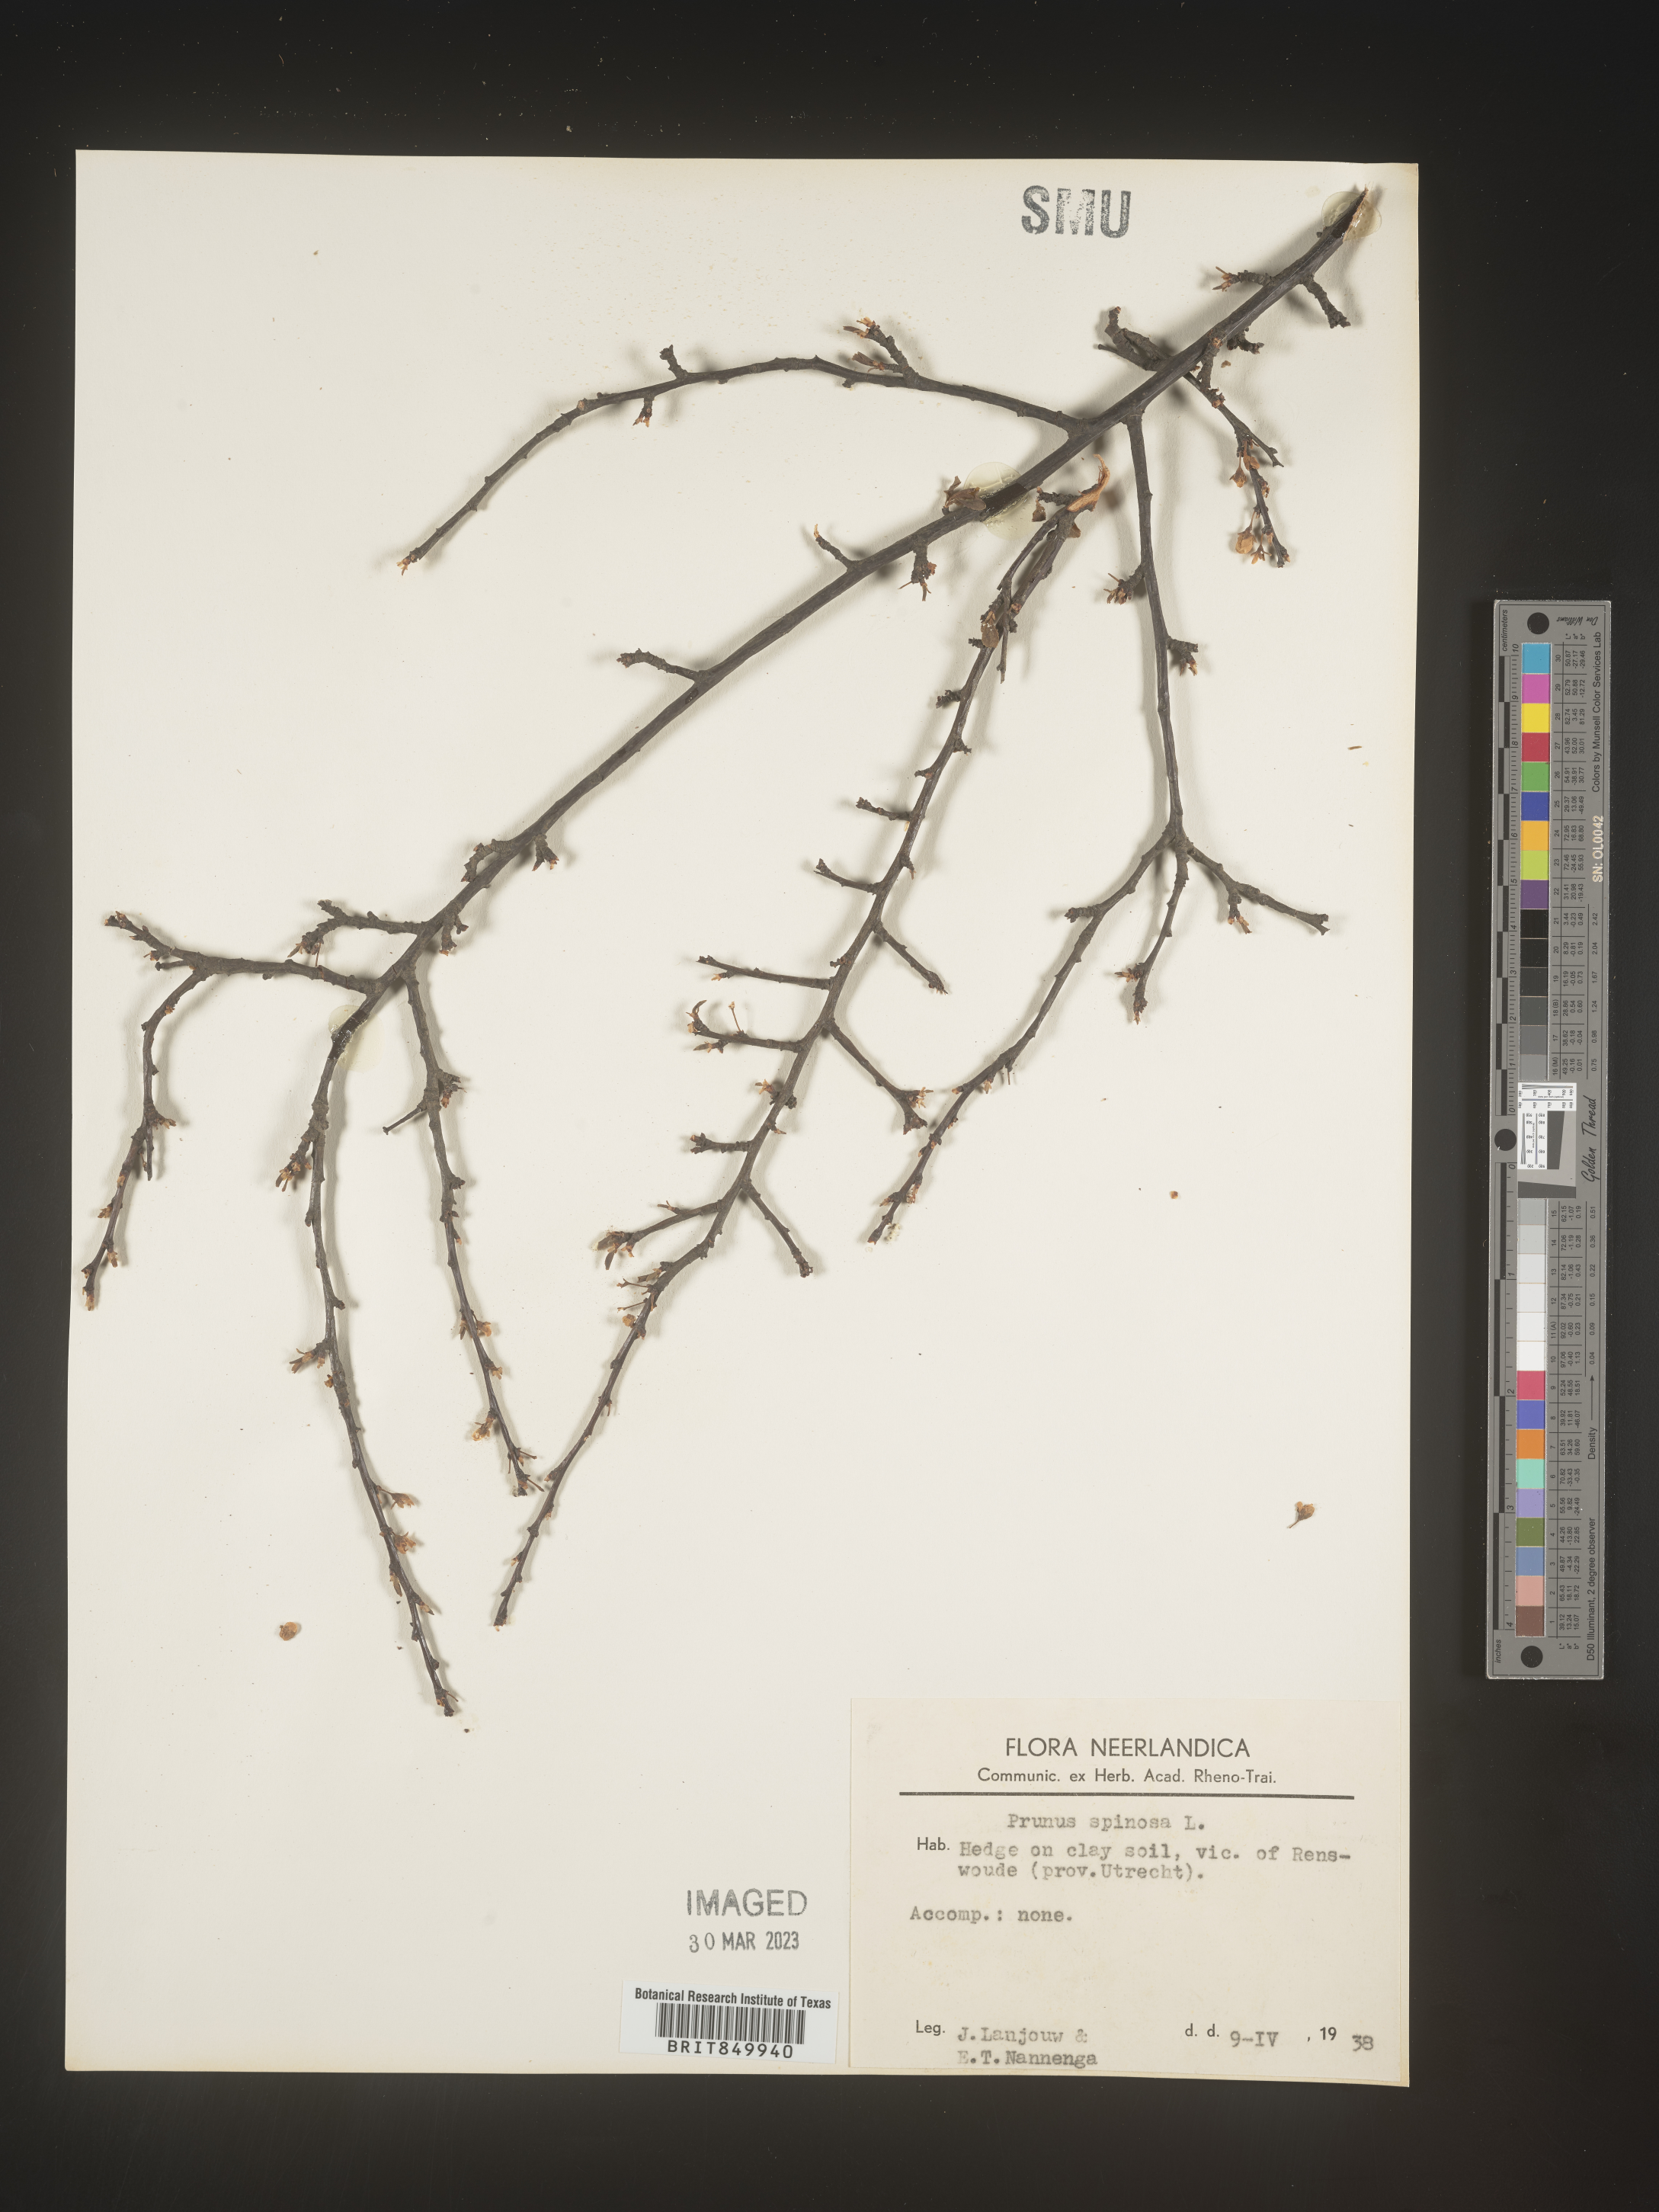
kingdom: Plantae
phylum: Tracheophyta
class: Magnoliopsida
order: Rosales
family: Rosaceae
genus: Pyrus
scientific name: Pyrus
